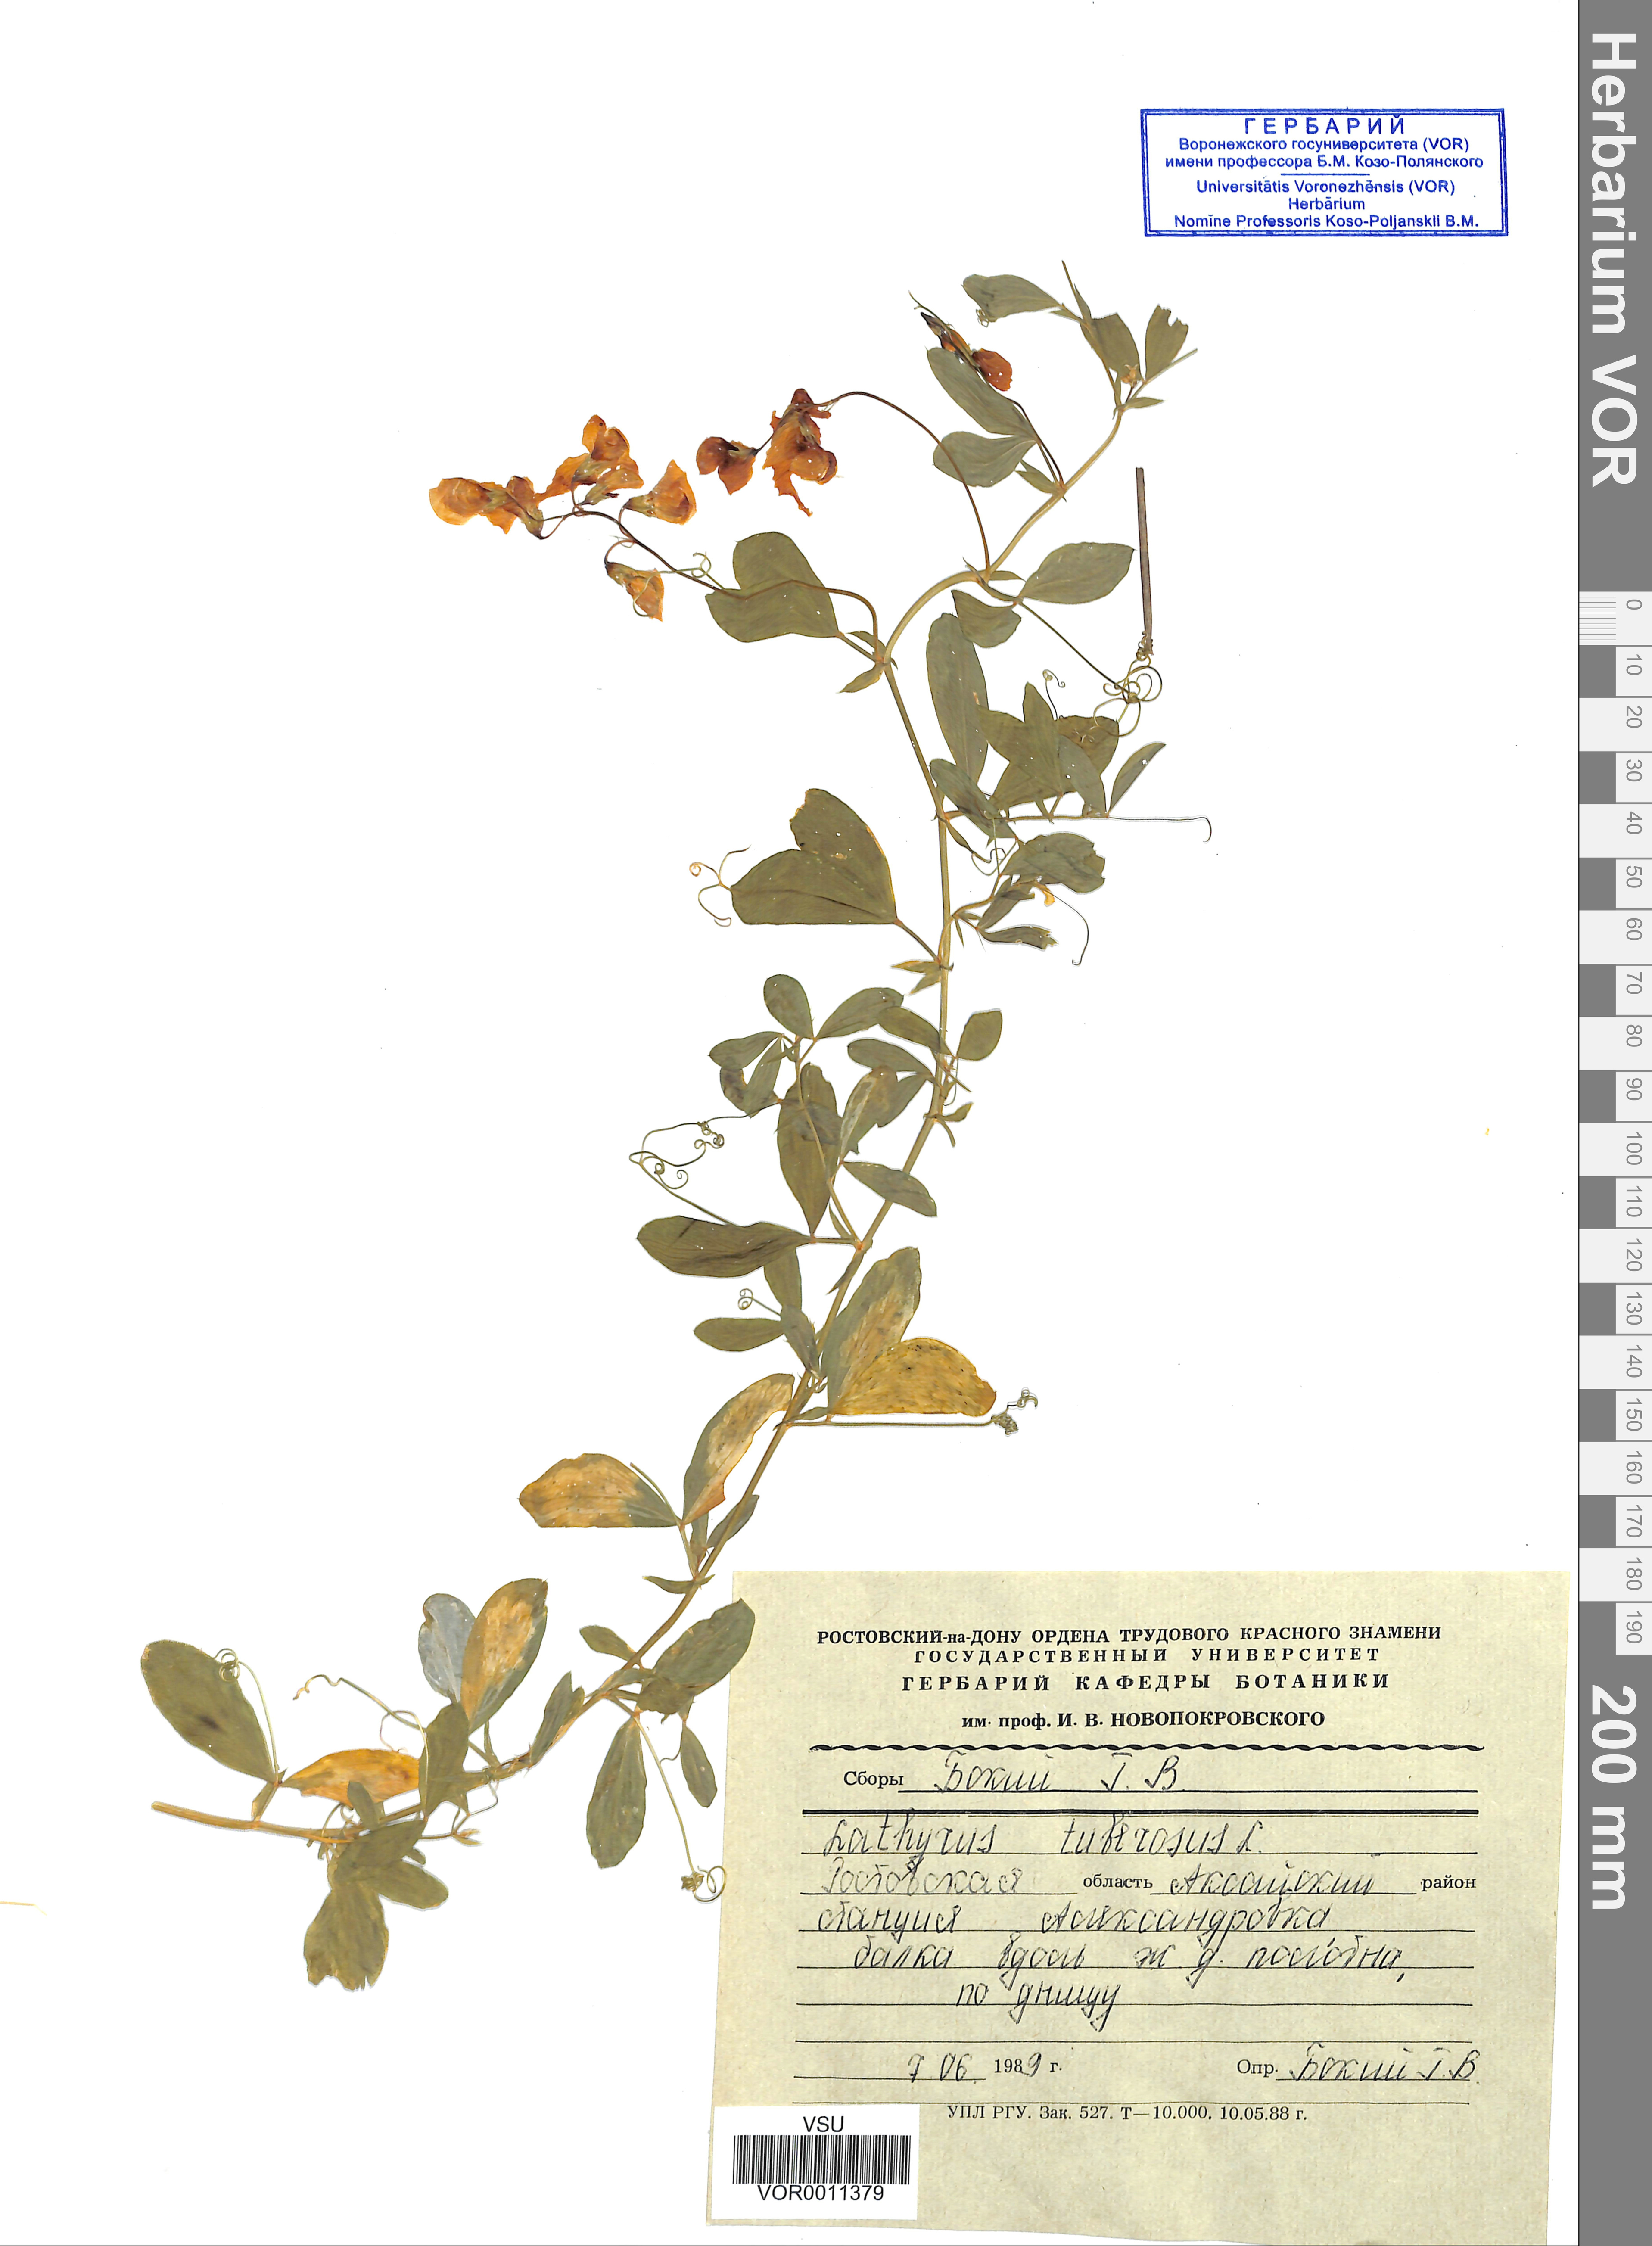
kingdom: Plantae
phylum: Tracheophyta
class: Magnoliopsida
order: Fabales
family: Fabaceae
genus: Lathyrus
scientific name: Lathyrus tuberosus
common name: Tuberous pea
